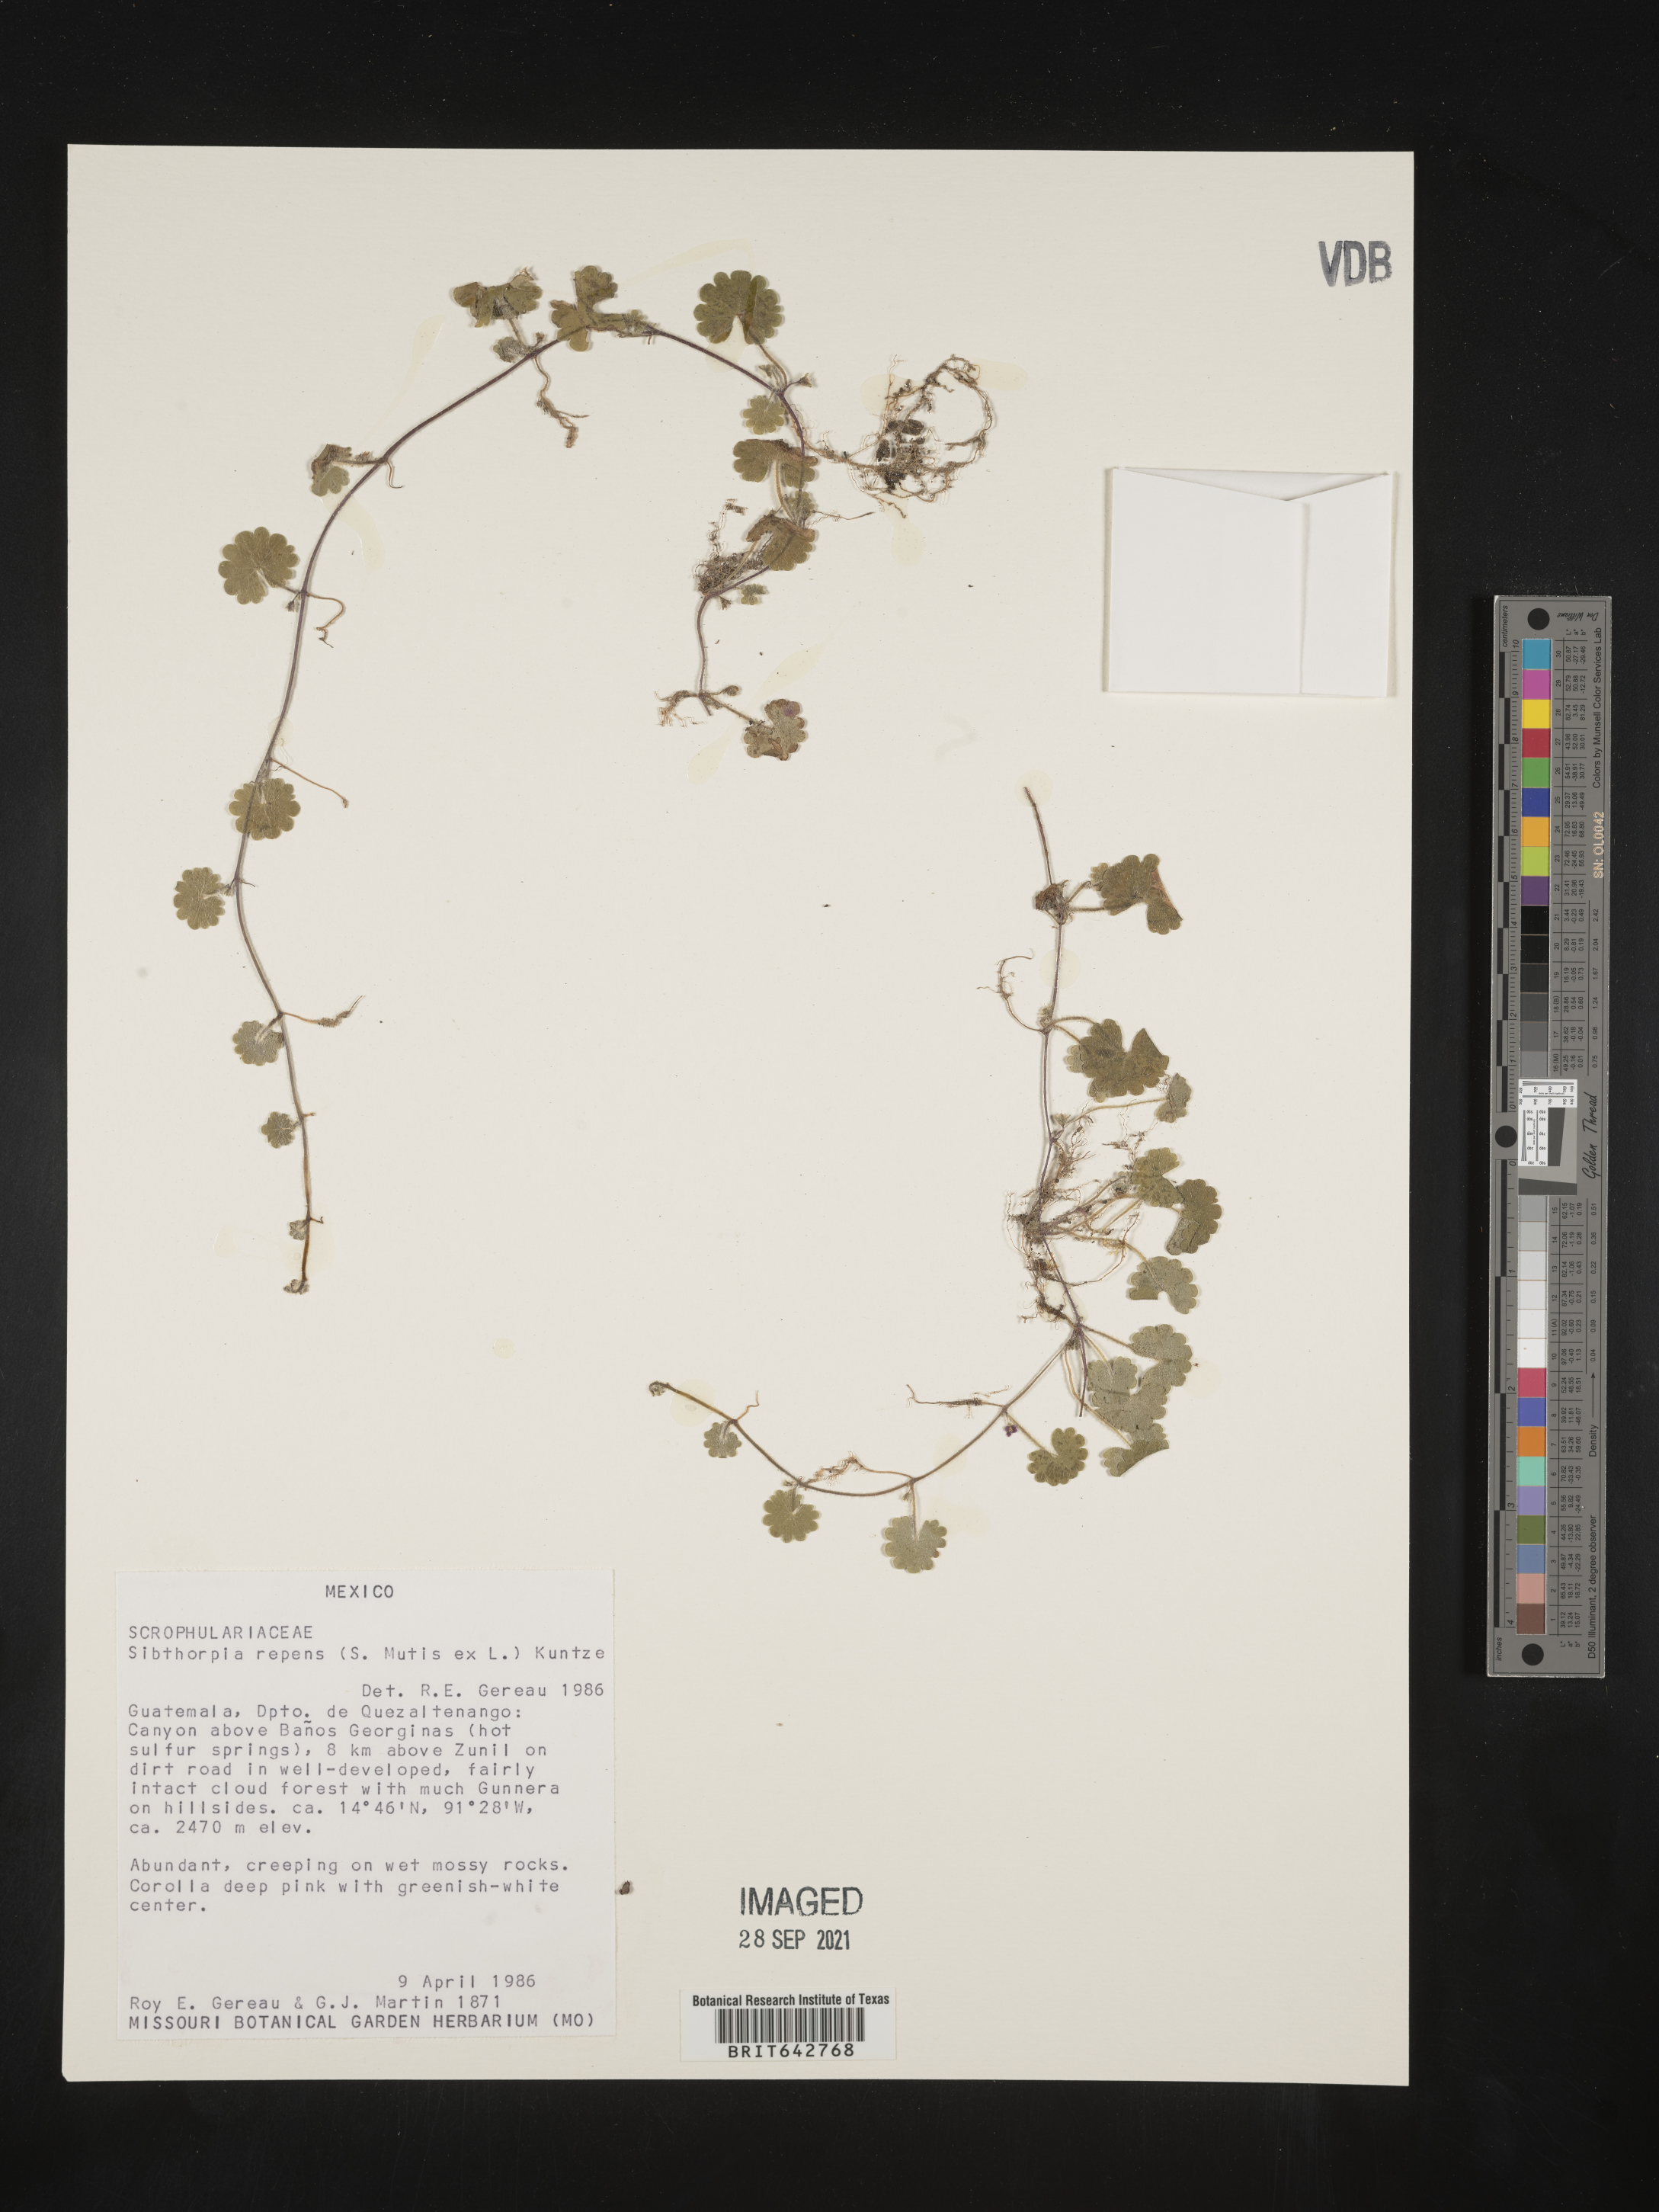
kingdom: Plantae
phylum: Tracheophyta
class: Magnoliopsida
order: Lamiales
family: Plantaginaceae
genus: Sibthorpia
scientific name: Sibthorpia
